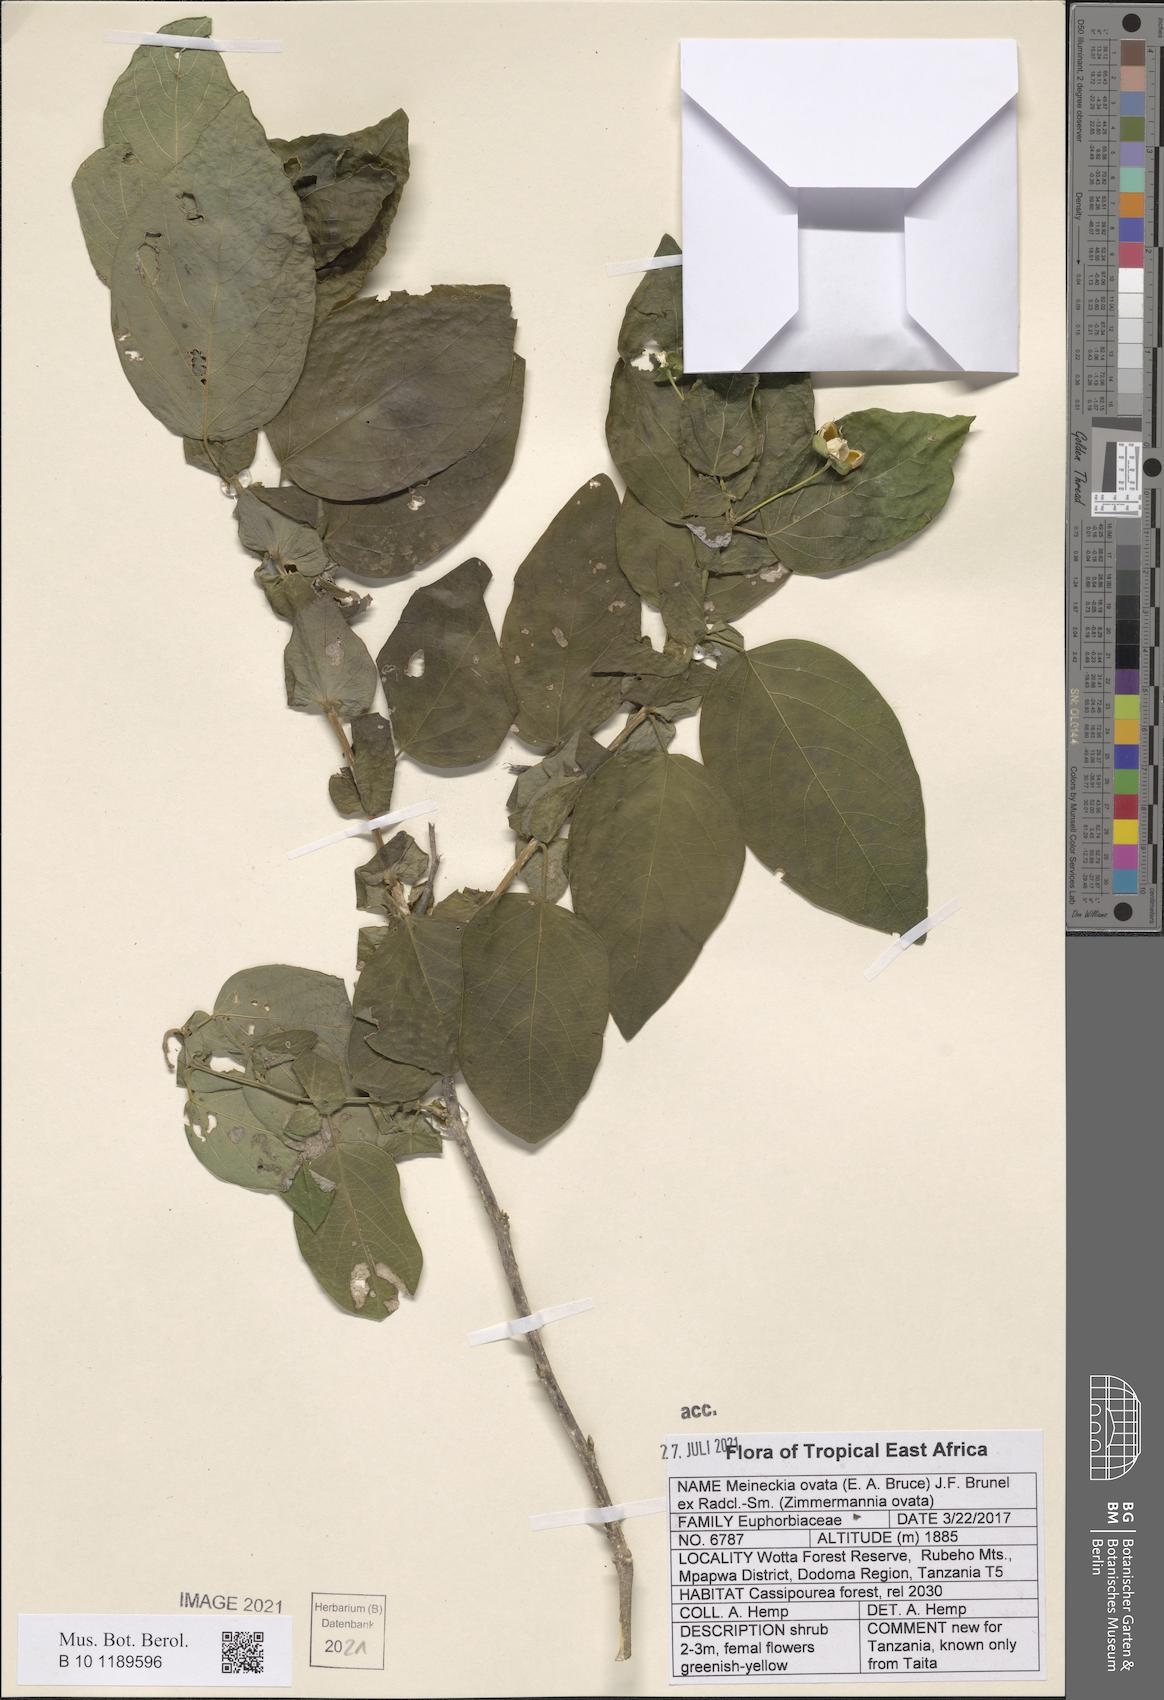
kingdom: Plantae
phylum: Tracheophyta
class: Magnoliopsida
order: Malpighiales
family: Phyllanthaceae
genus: Meineckia
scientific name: Meineckia ovata
